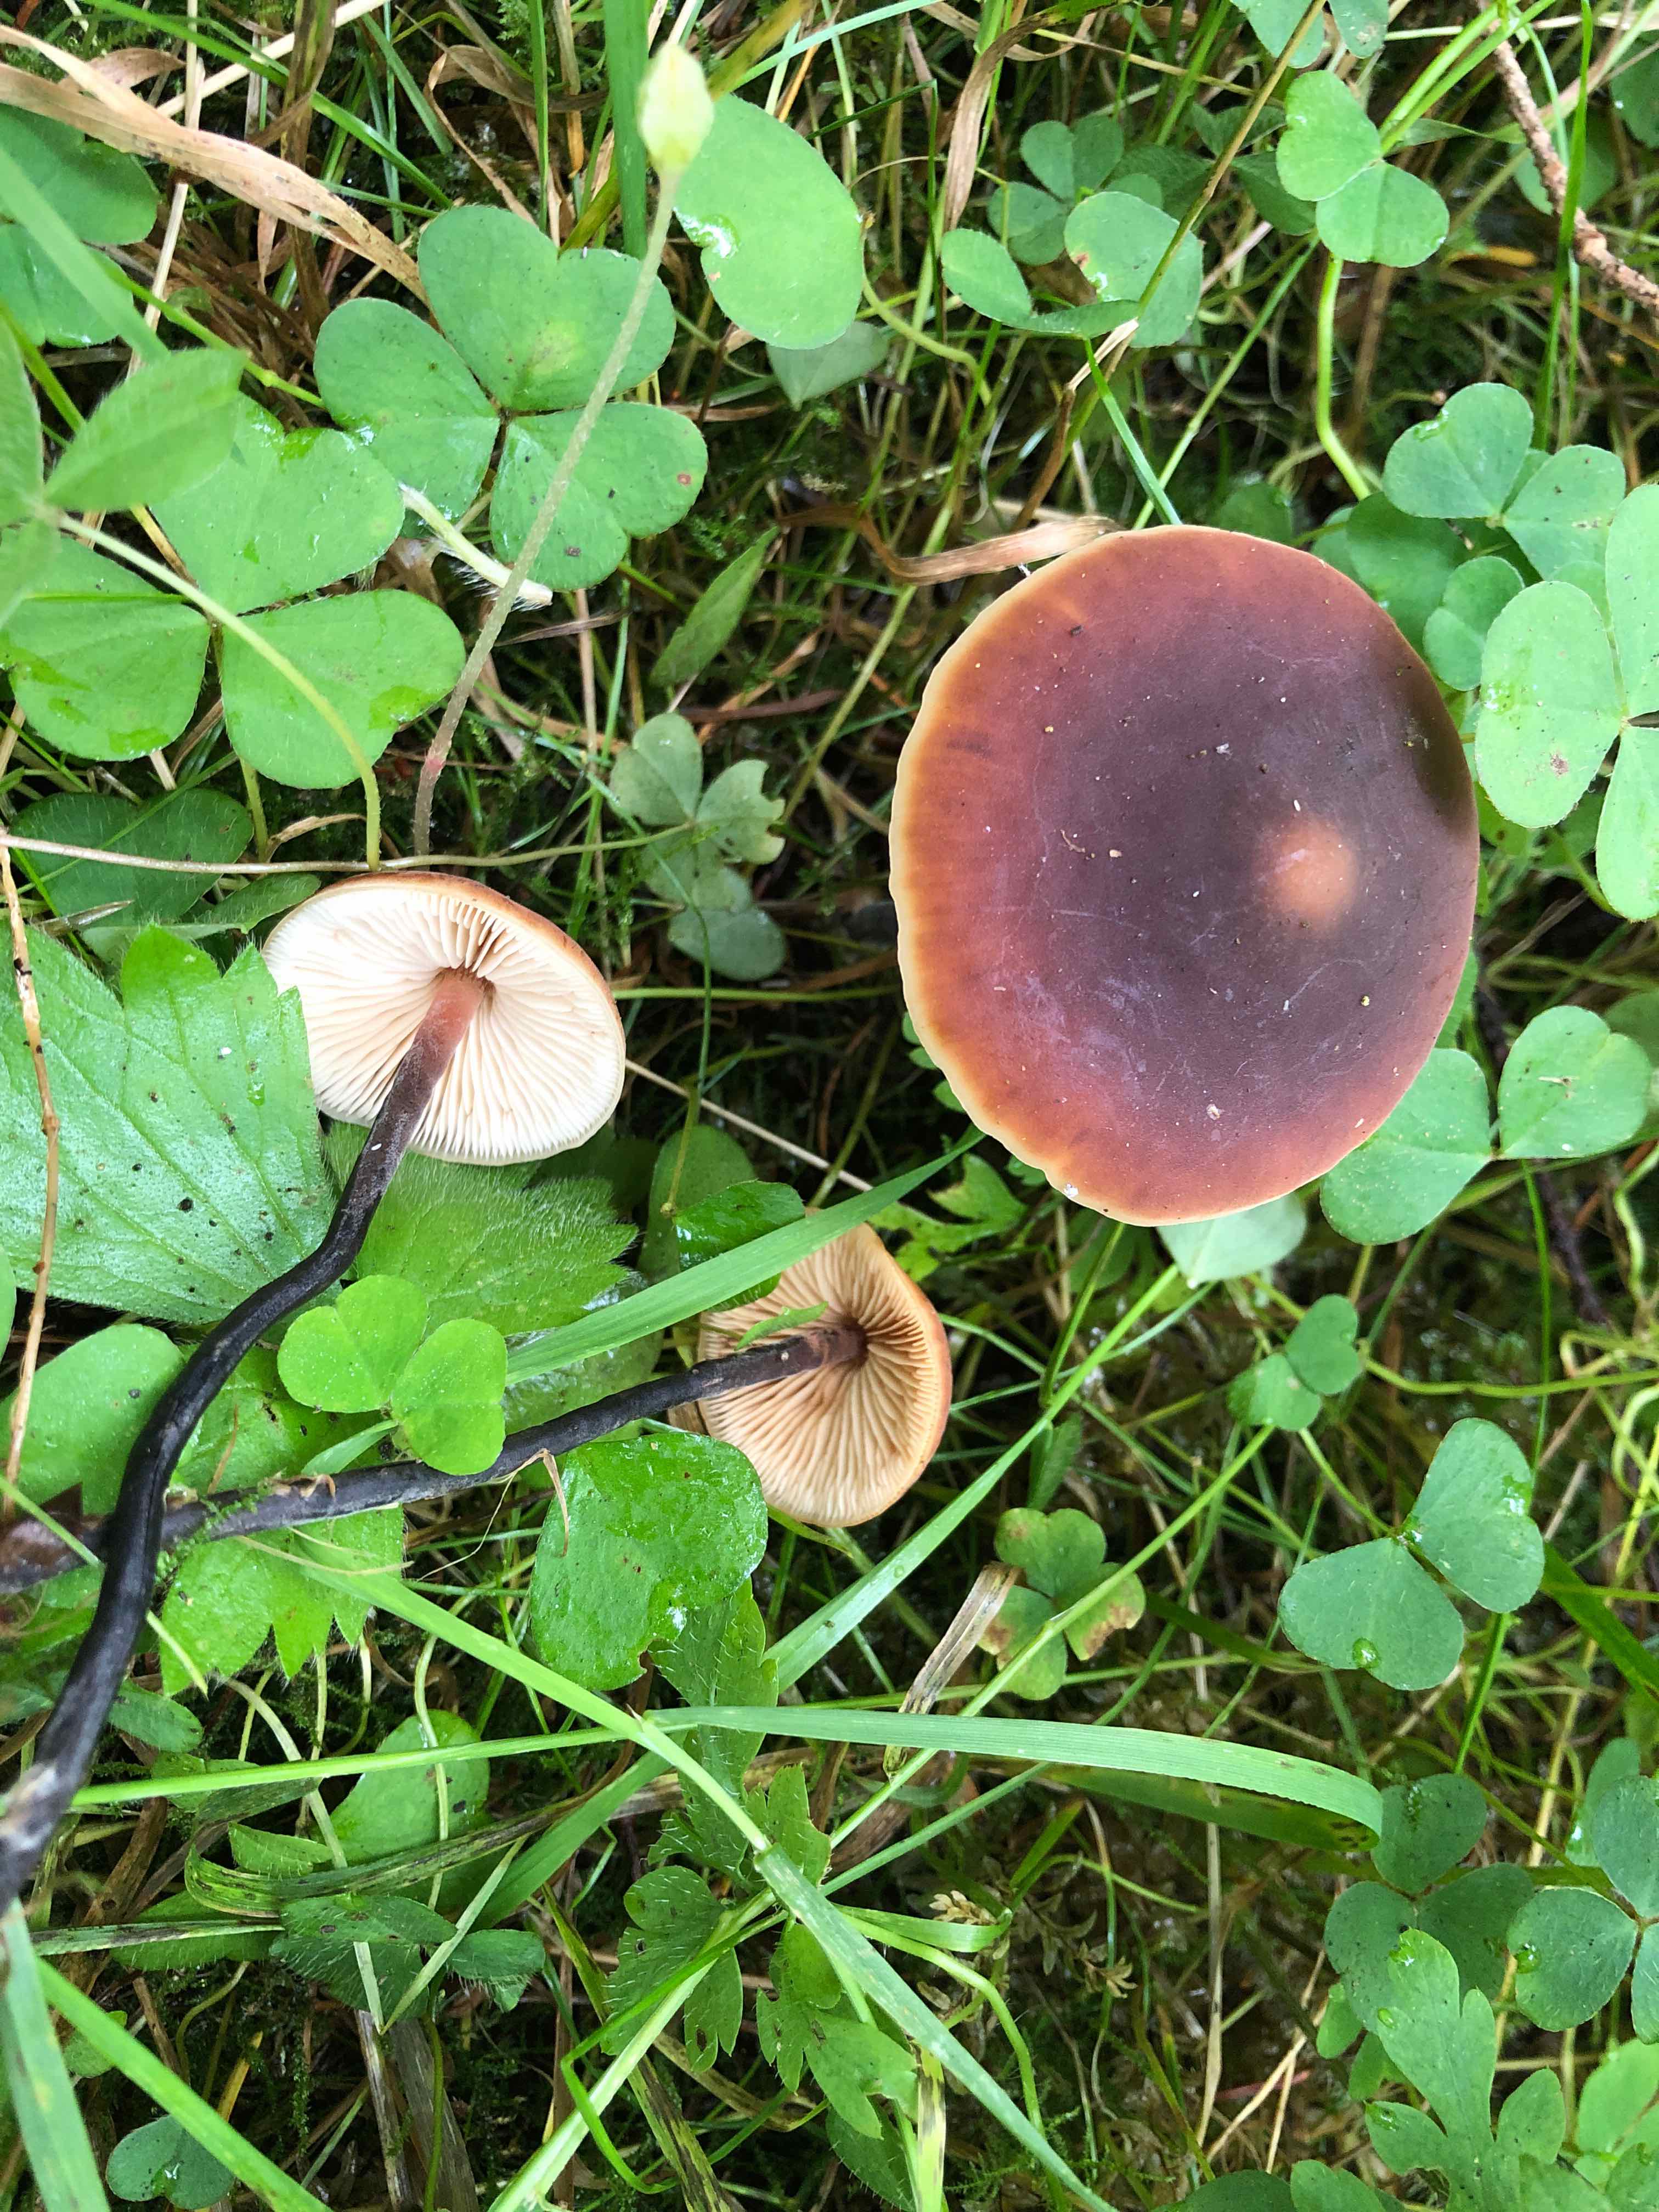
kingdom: Fungi
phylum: Basidiomycota
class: Agaricomycetes
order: Agaricales
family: Macrocystidiaceae
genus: Macrocystidia
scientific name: Macrocystidia cucumis
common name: agurkehat
